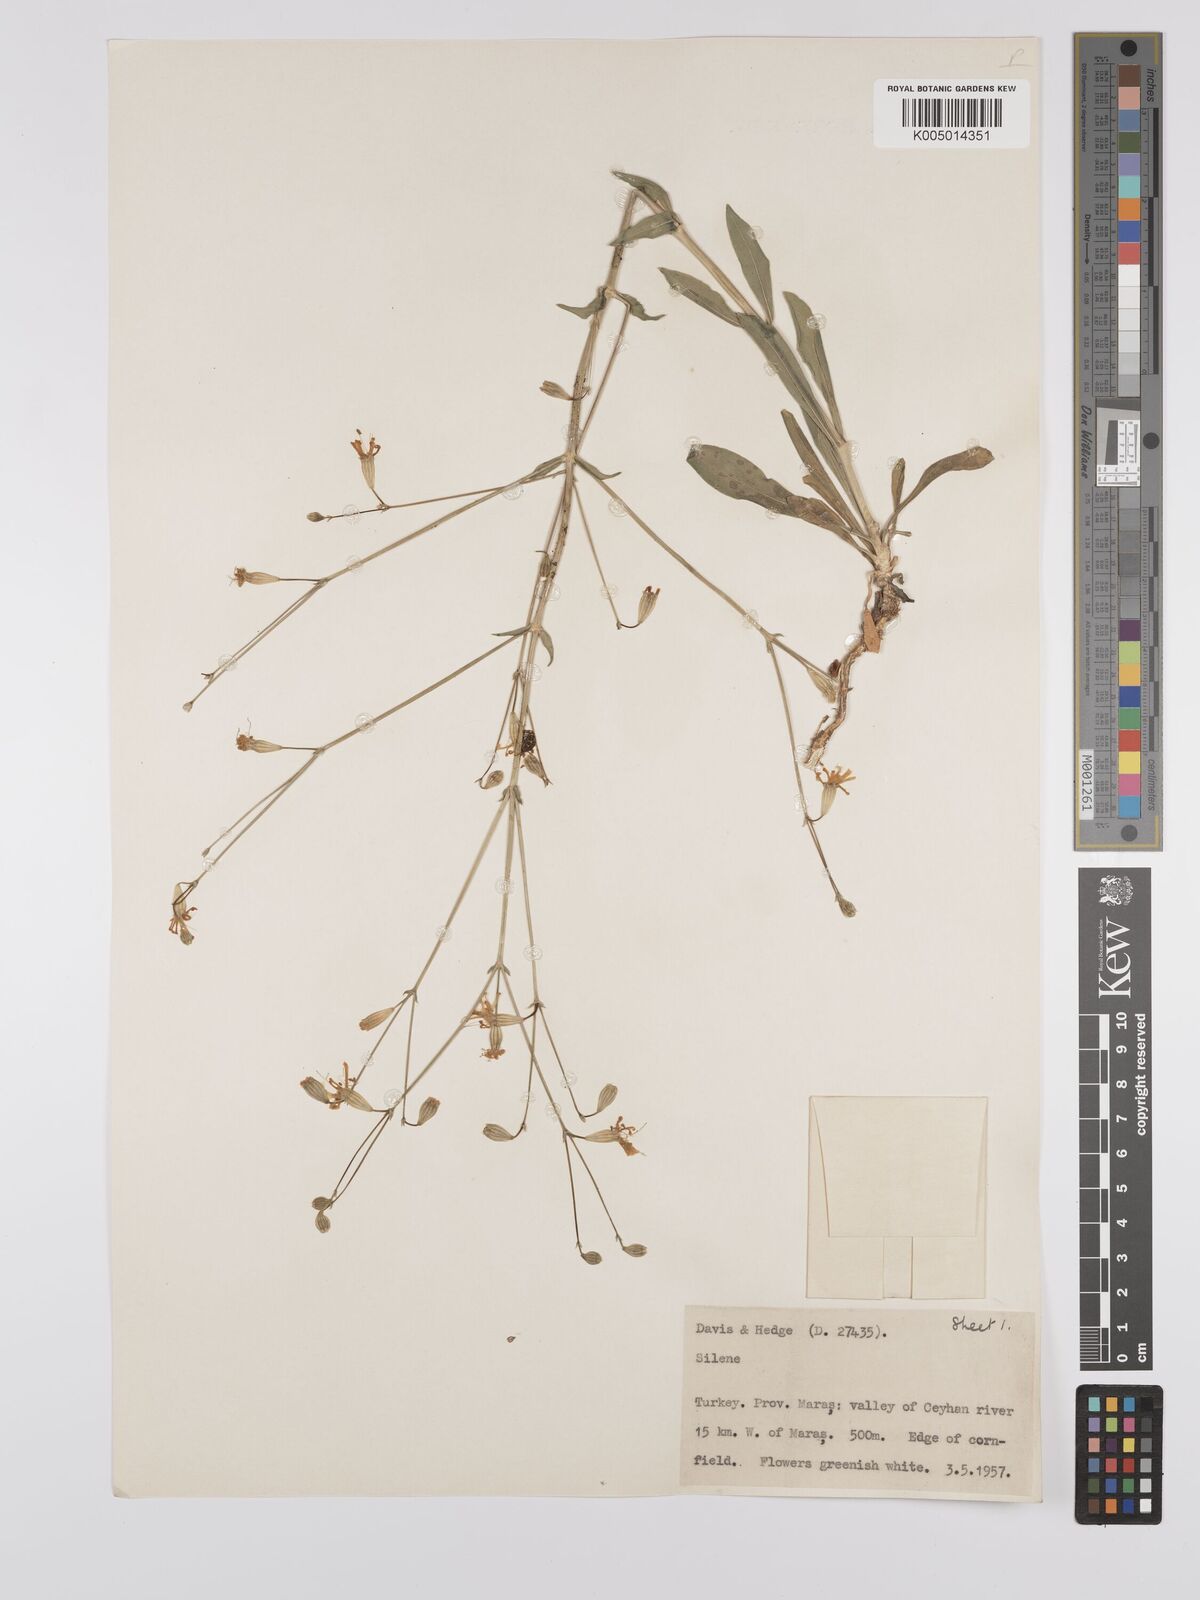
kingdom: Plantae
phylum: Tracheophyta
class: Magnoliopsida
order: Caryophyllales
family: Caryophyllaceae
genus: Silene
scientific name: Silene
